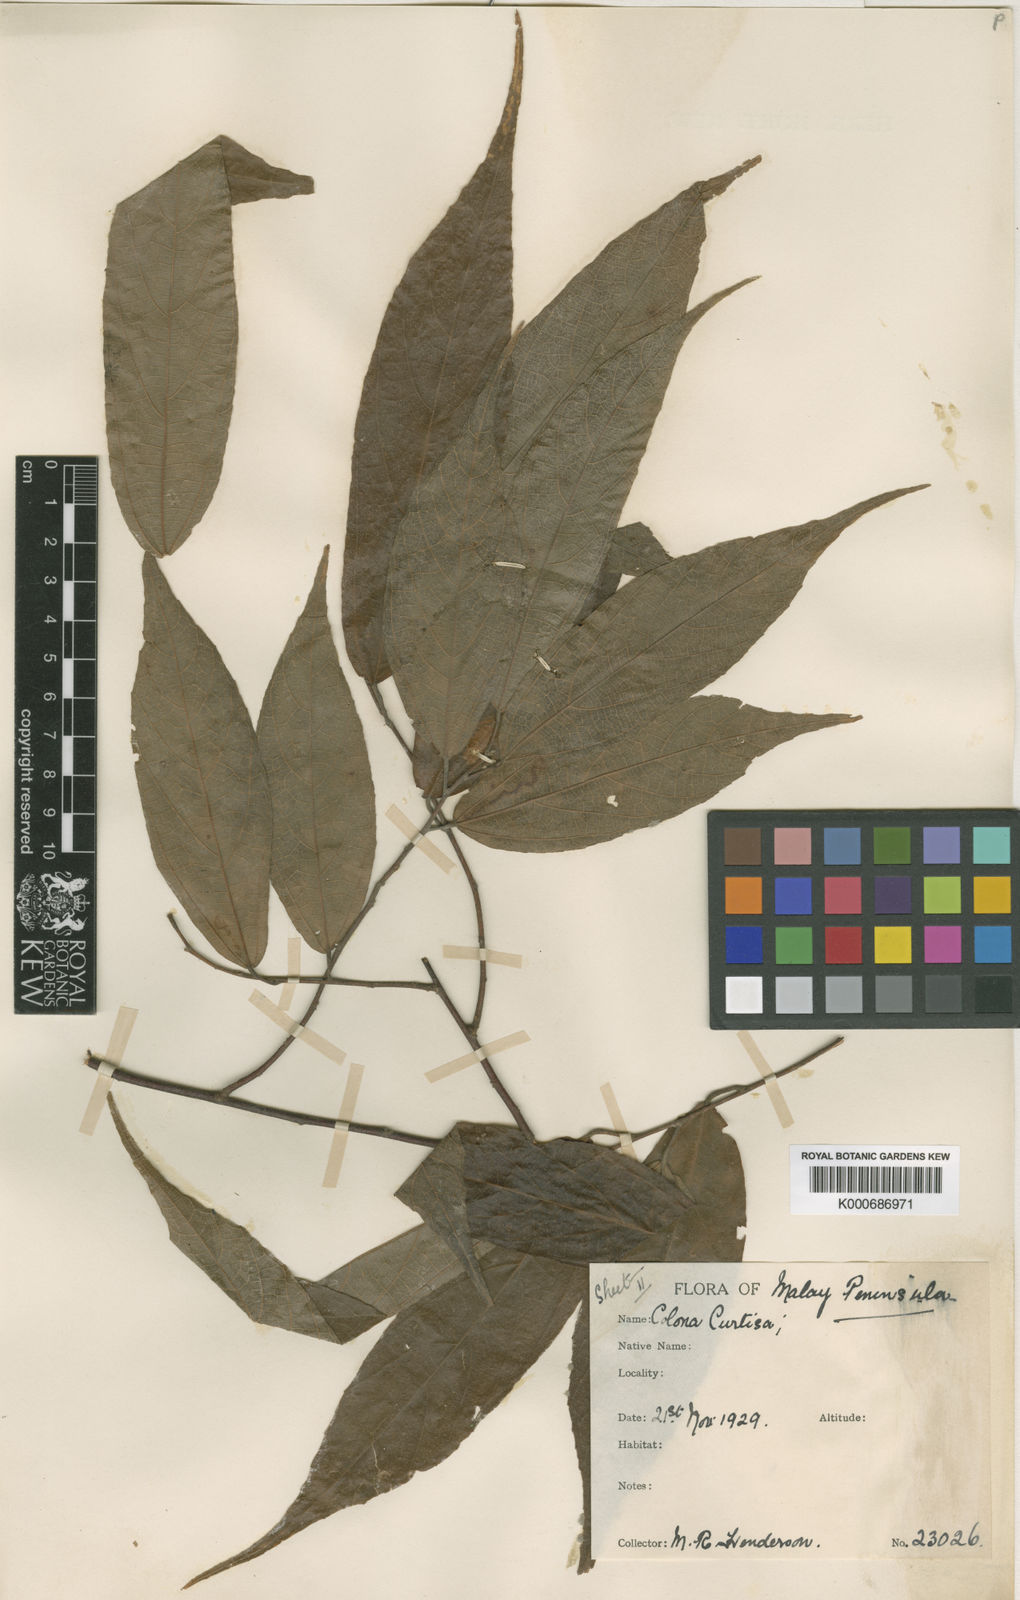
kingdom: Plantae
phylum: Tracheophyta
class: Magnoliopsida
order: Malvales
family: Malvaceae
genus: Colona
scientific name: Colona merguensis
